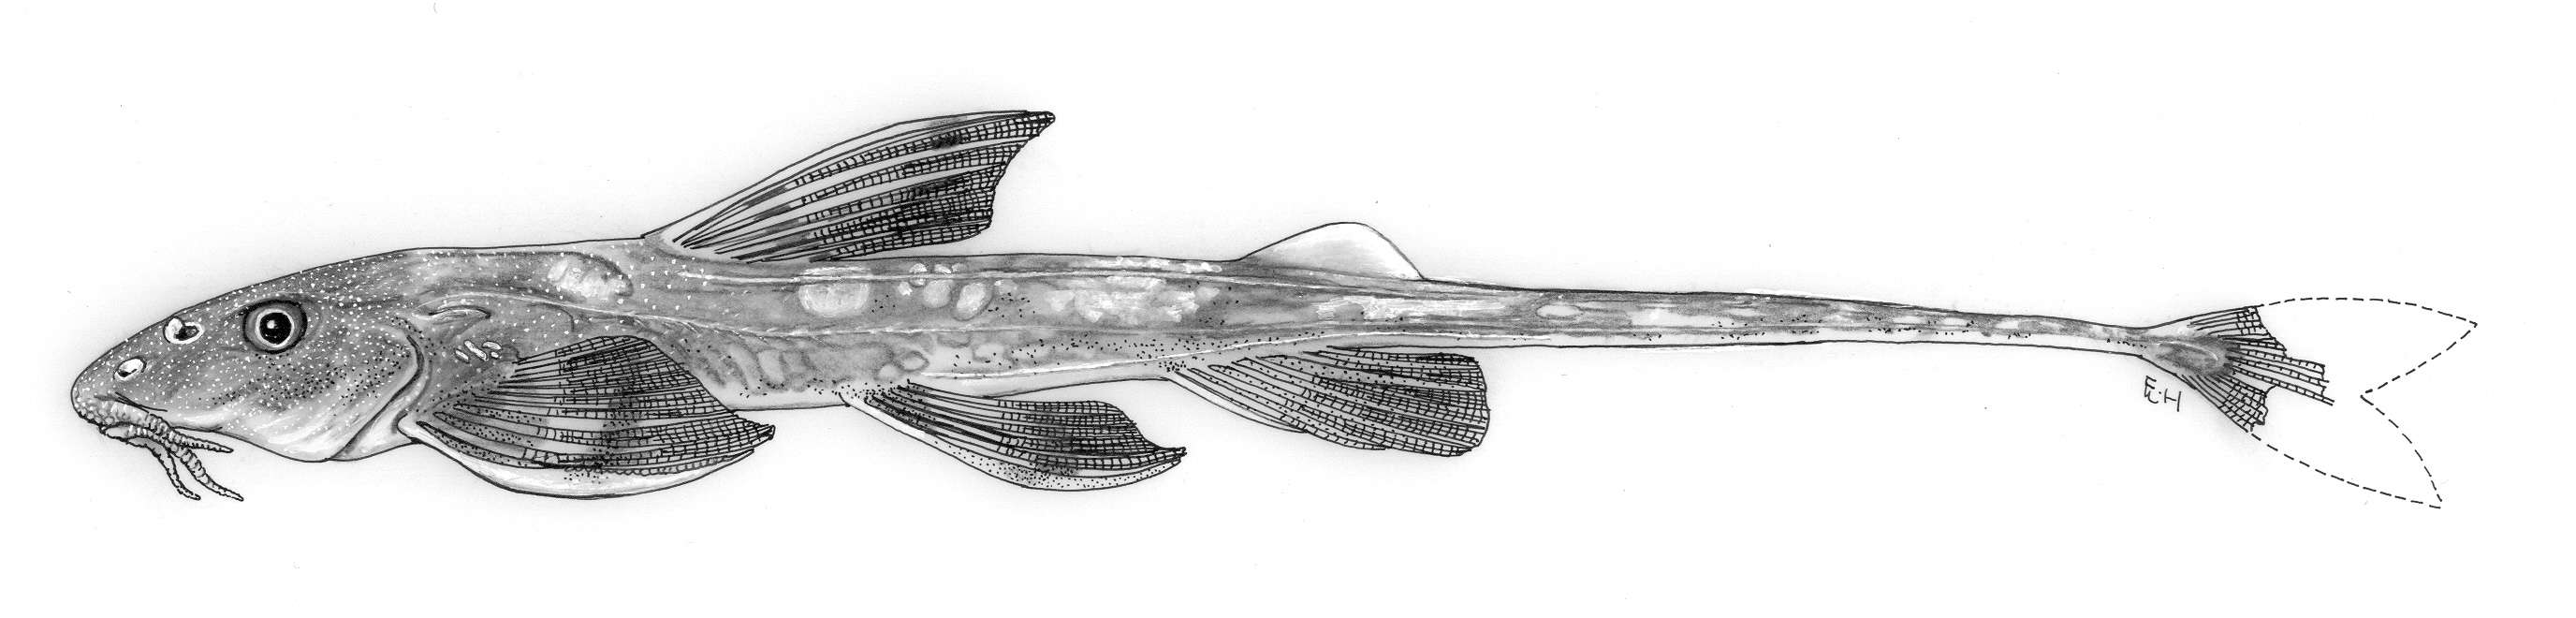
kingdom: Animalia
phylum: Chordata
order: Siluriformes
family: Amphiliidae
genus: Phractura
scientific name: Phractura gladysae
